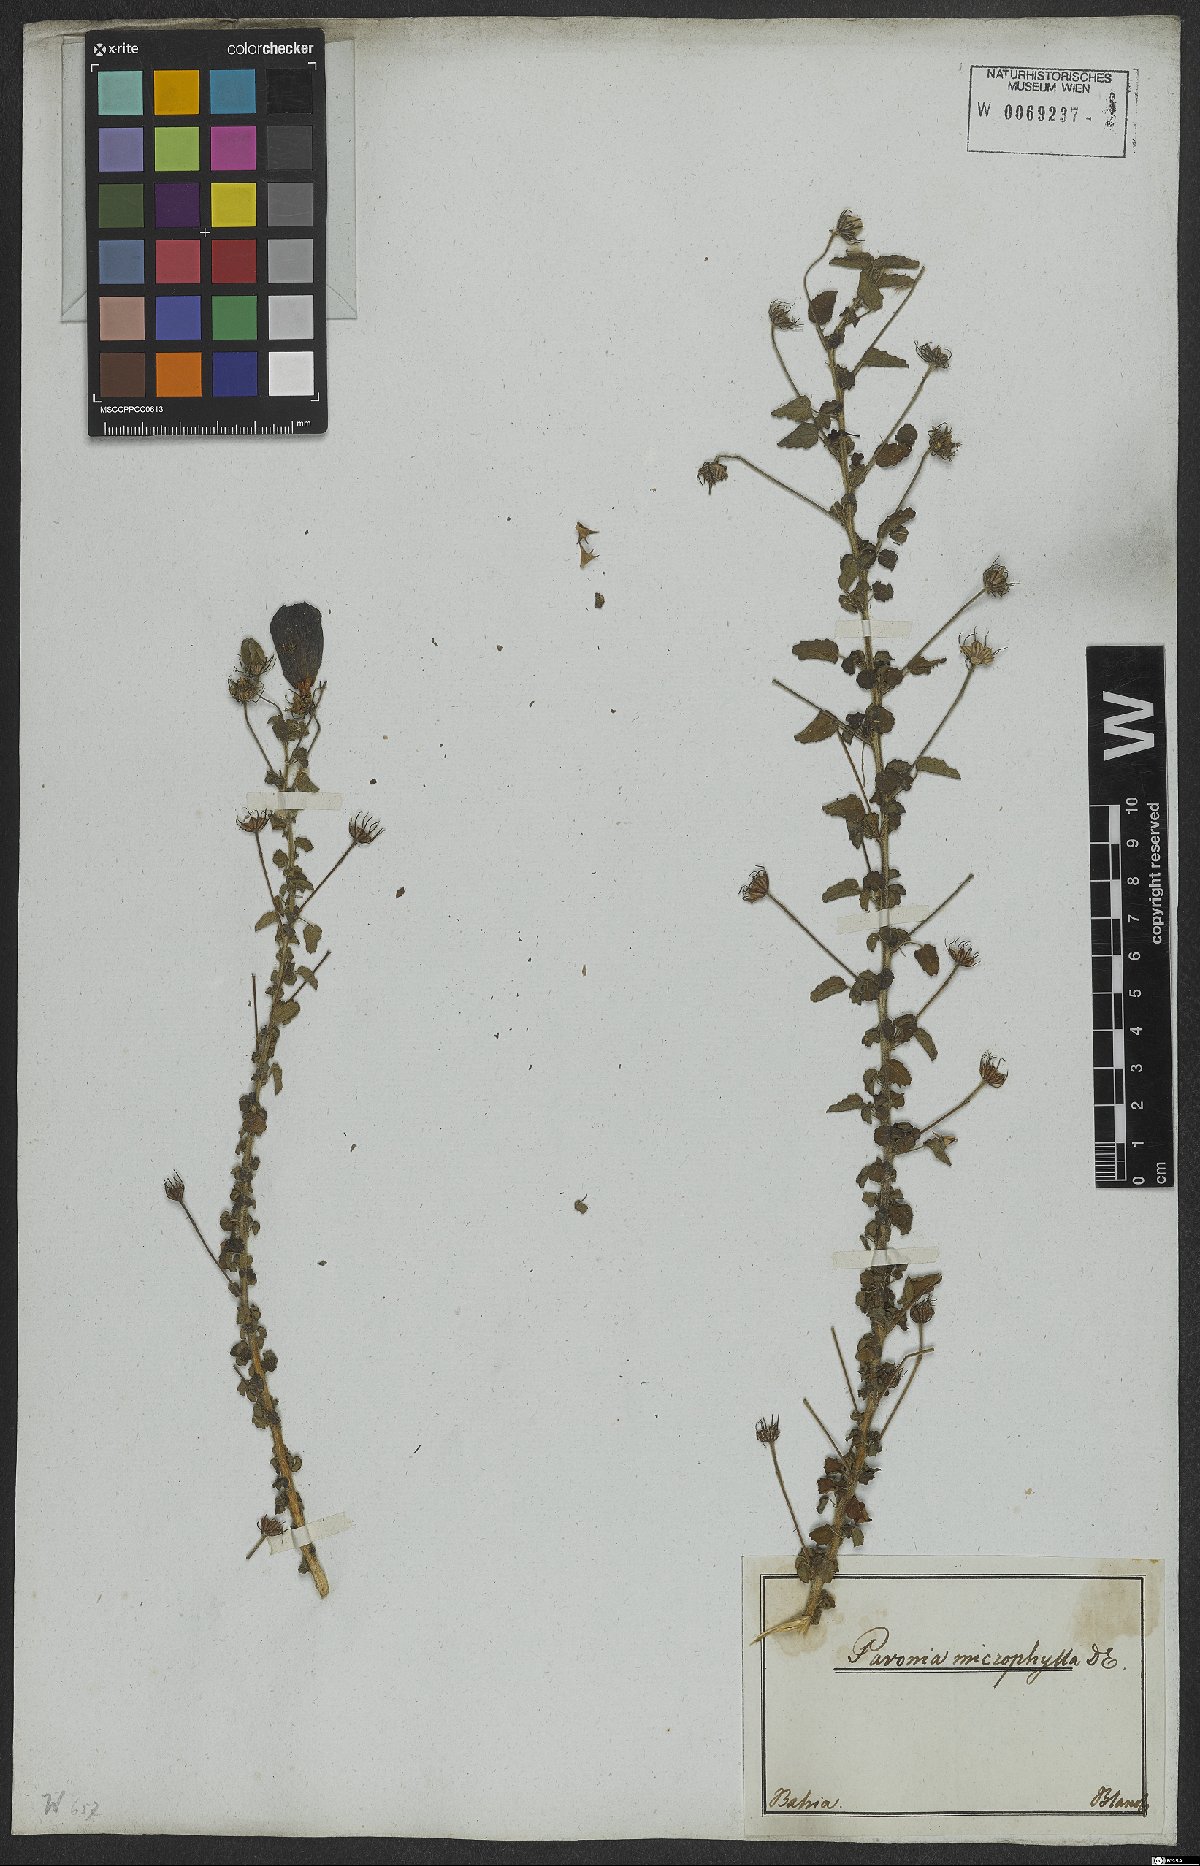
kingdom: Plantae
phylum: Tracheophyta
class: Magnoliopsida
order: Malvales
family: Malvaceae
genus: Pavonia
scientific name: Pavonia dregei
